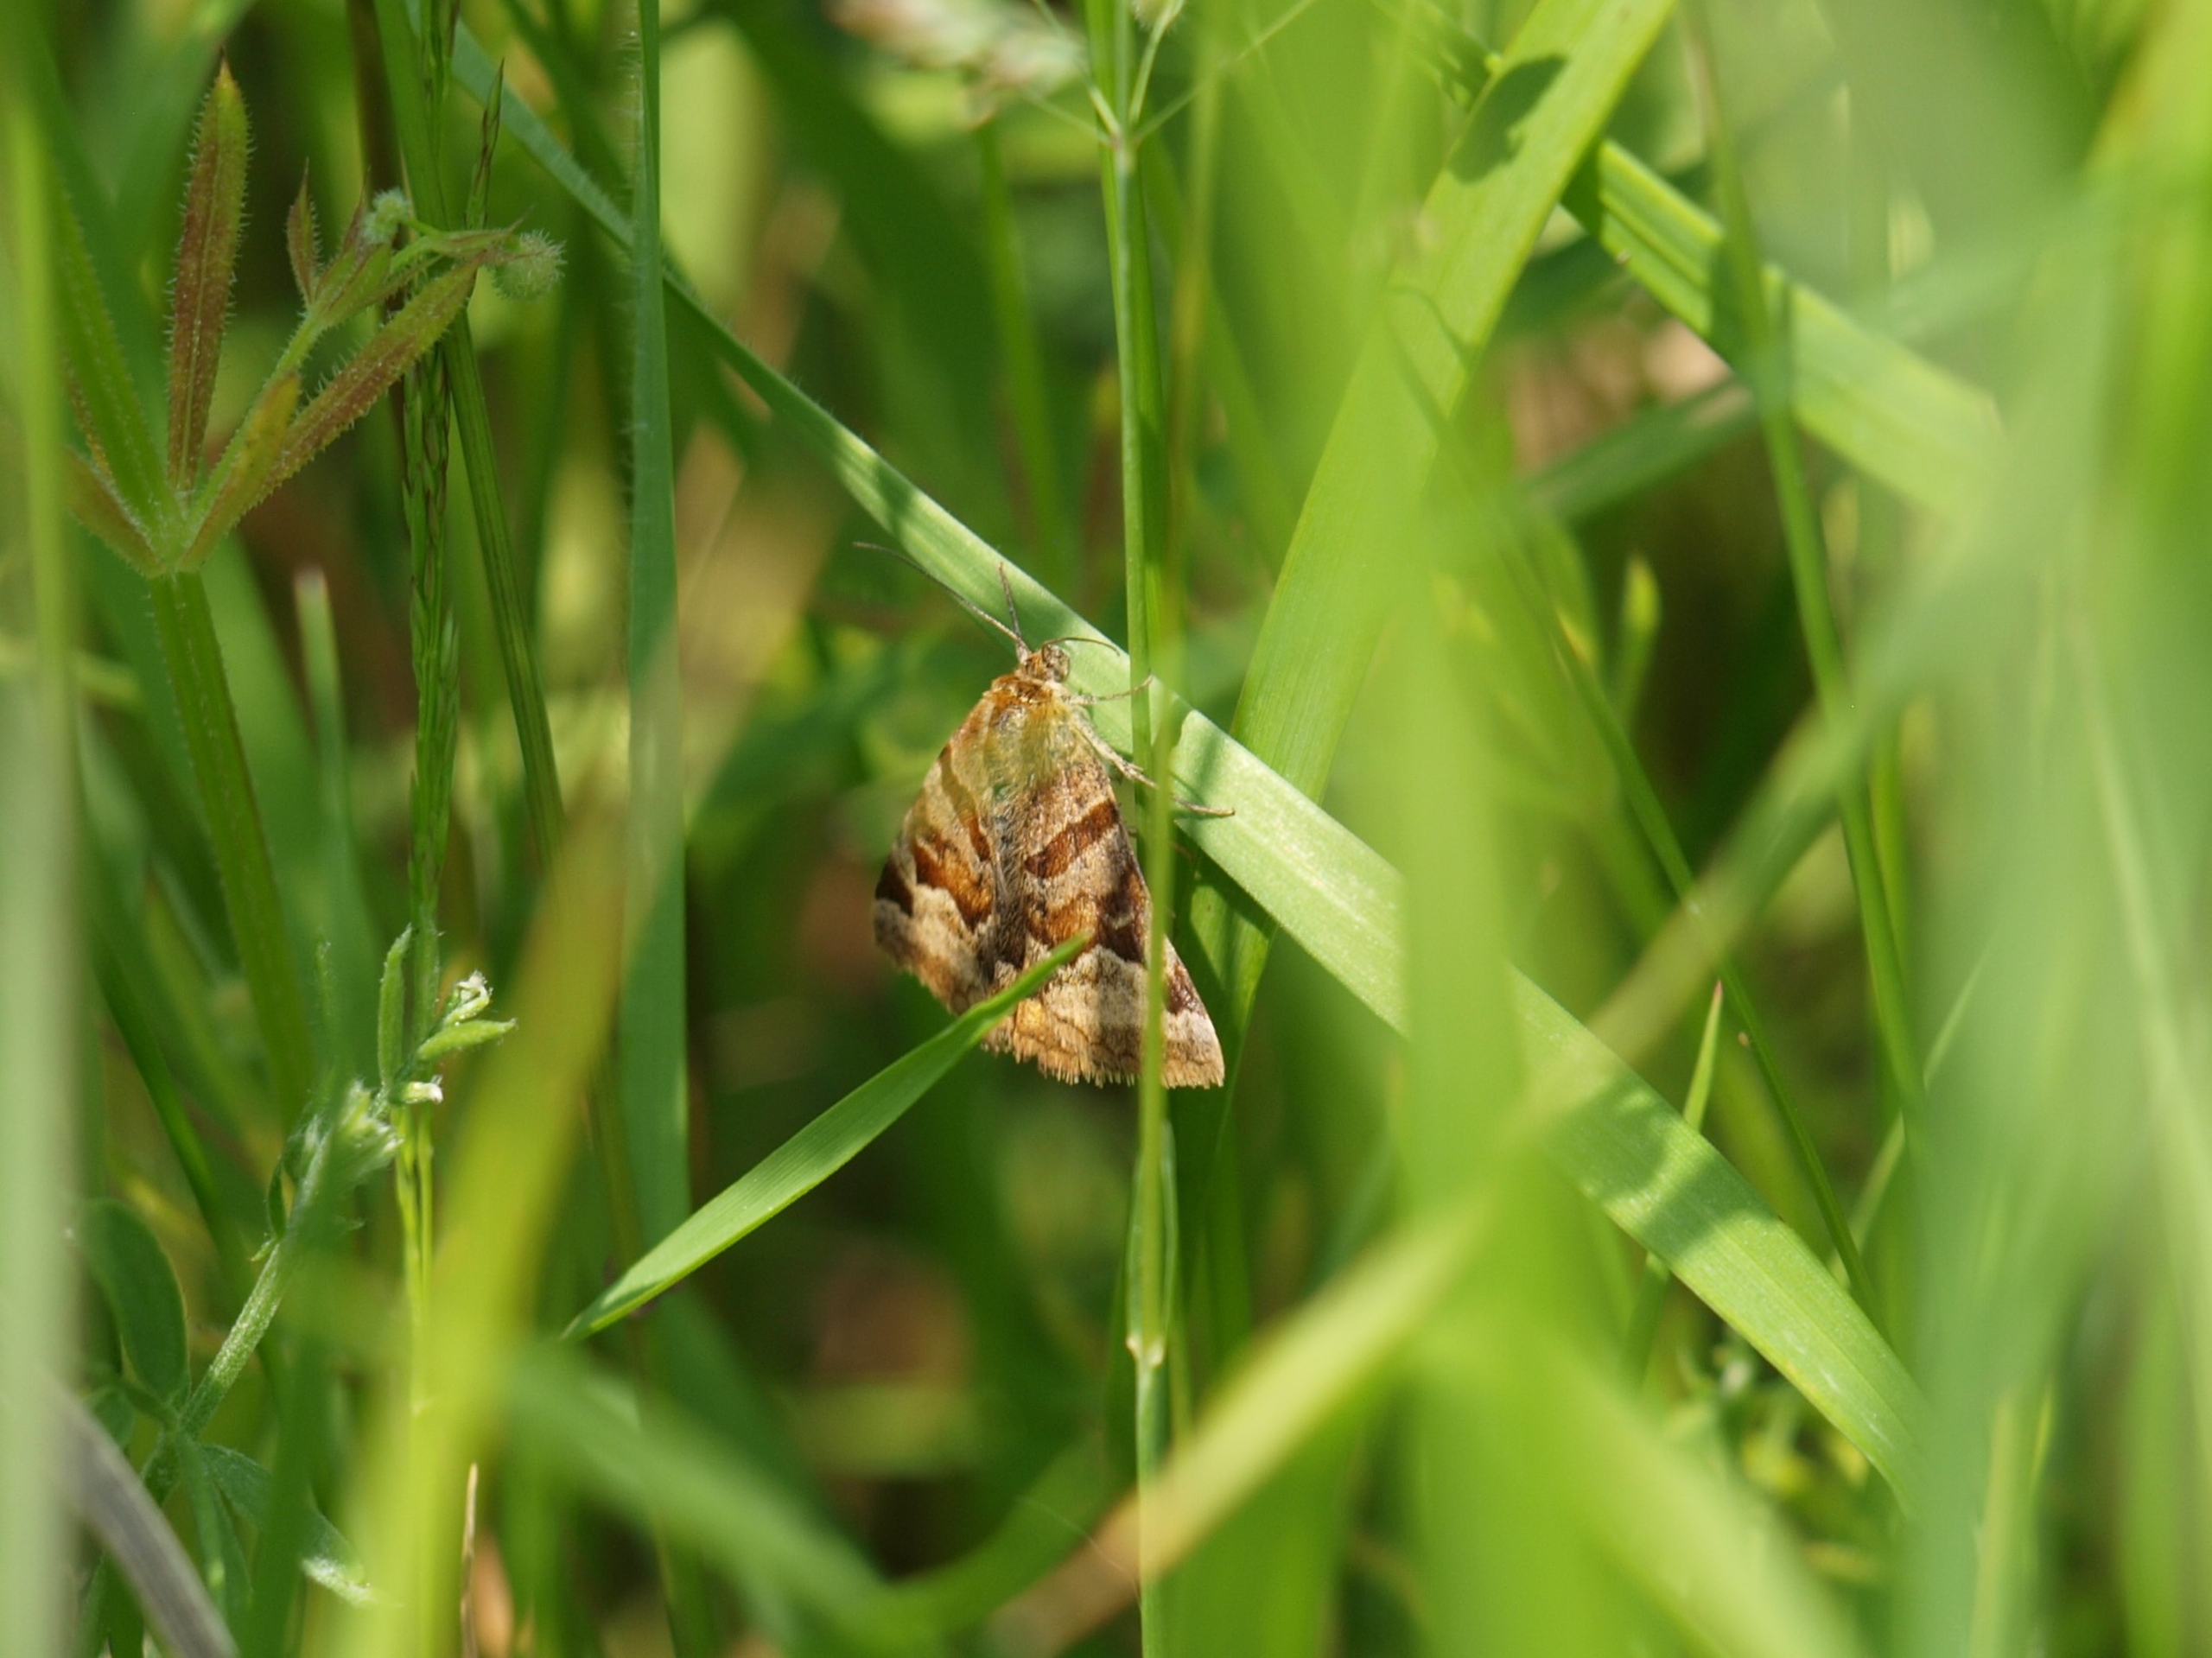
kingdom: Animalia
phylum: Arthropoda
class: Insecta
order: Lepidoptera
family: Erebidae
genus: Euclidia
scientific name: Euclidia glyphica
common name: Brun kløverugle
